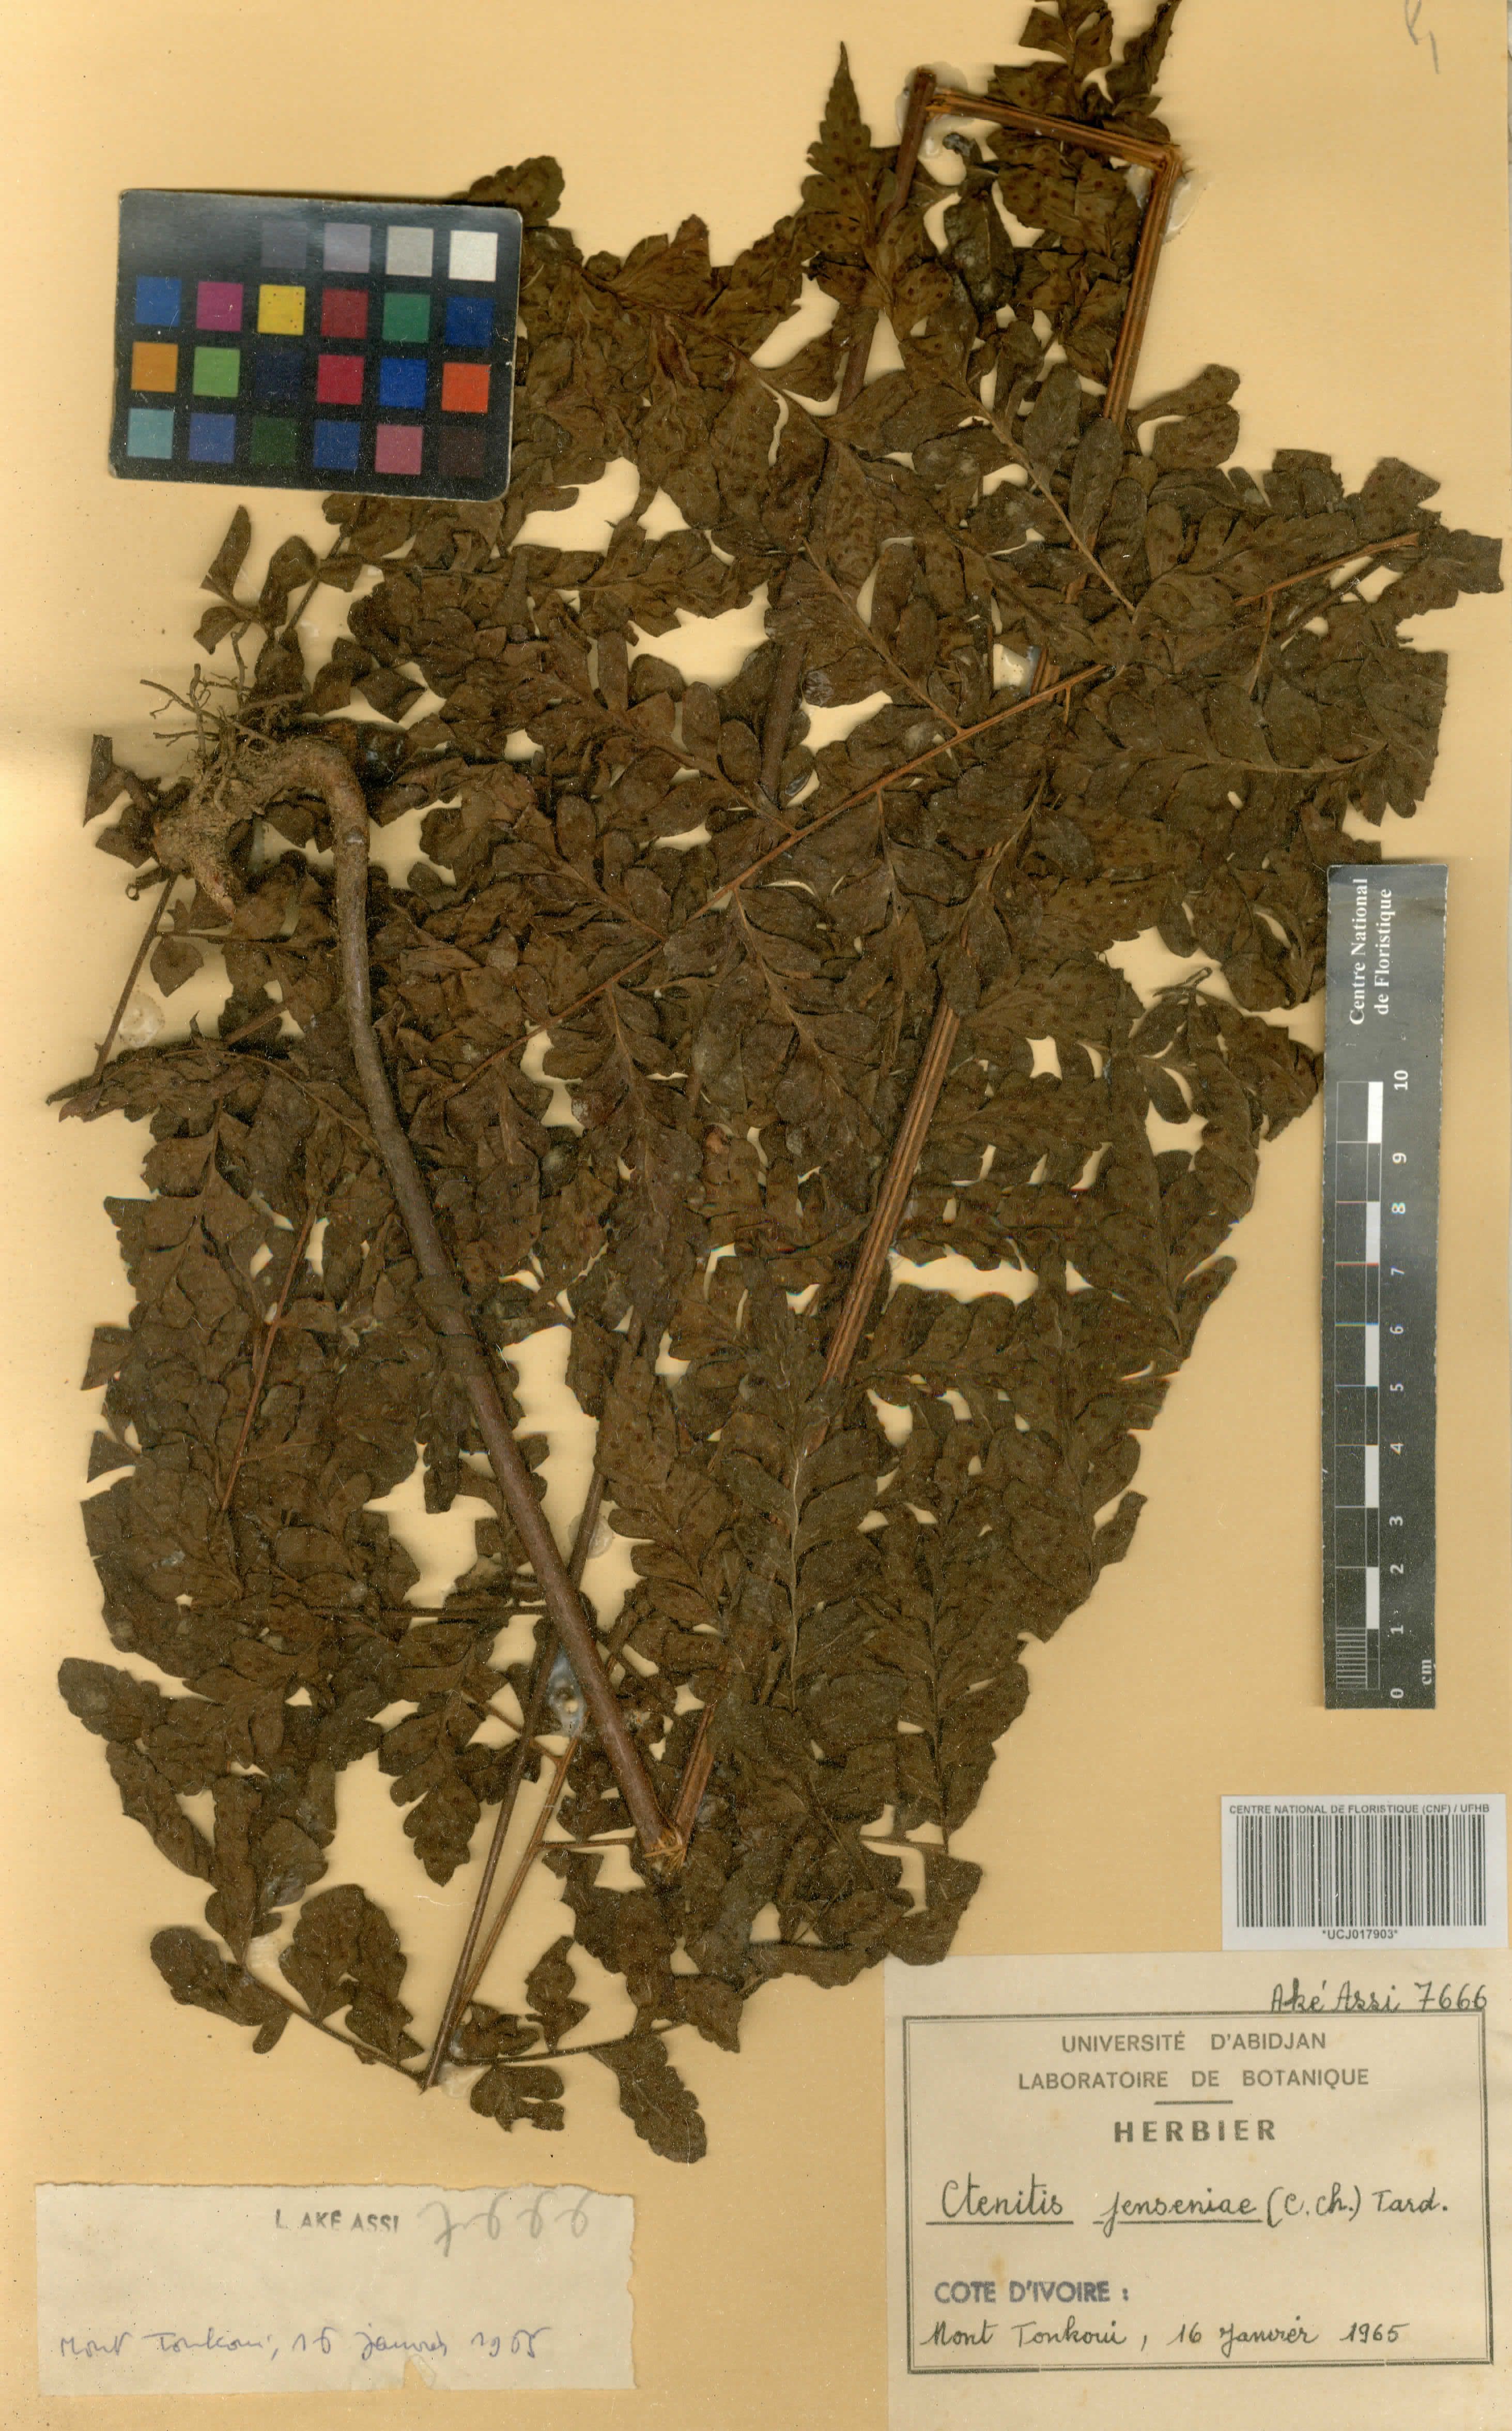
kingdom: Plantae
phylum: Tracheophyta
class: Polypodiopsida
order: Polypodiales
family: Tectariaceae
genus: Triplophyllum
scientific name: Triplophyllum jenseniae
